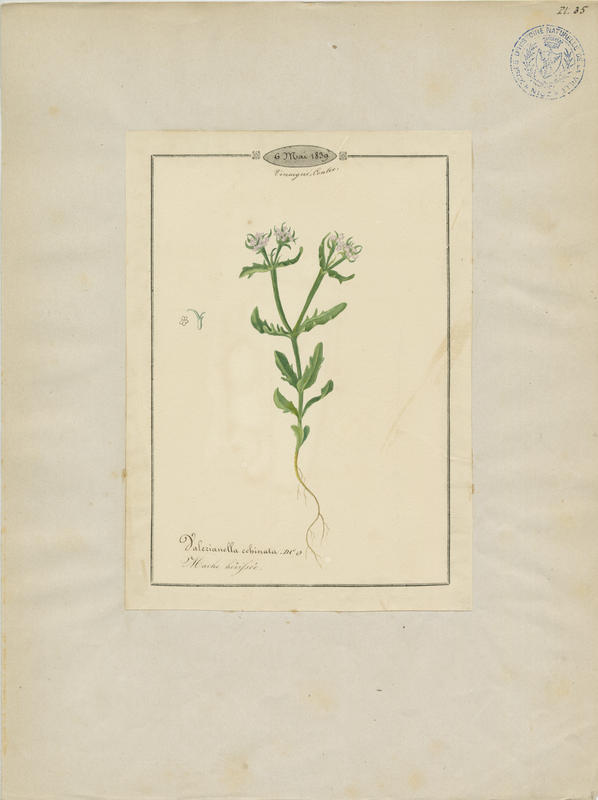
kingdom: Plantae
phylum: Tracheophyta
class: Magnoliopsida
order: Dipsacales
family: Caprifoliaceae
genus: Valerianella
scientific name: Valerianella echinata
